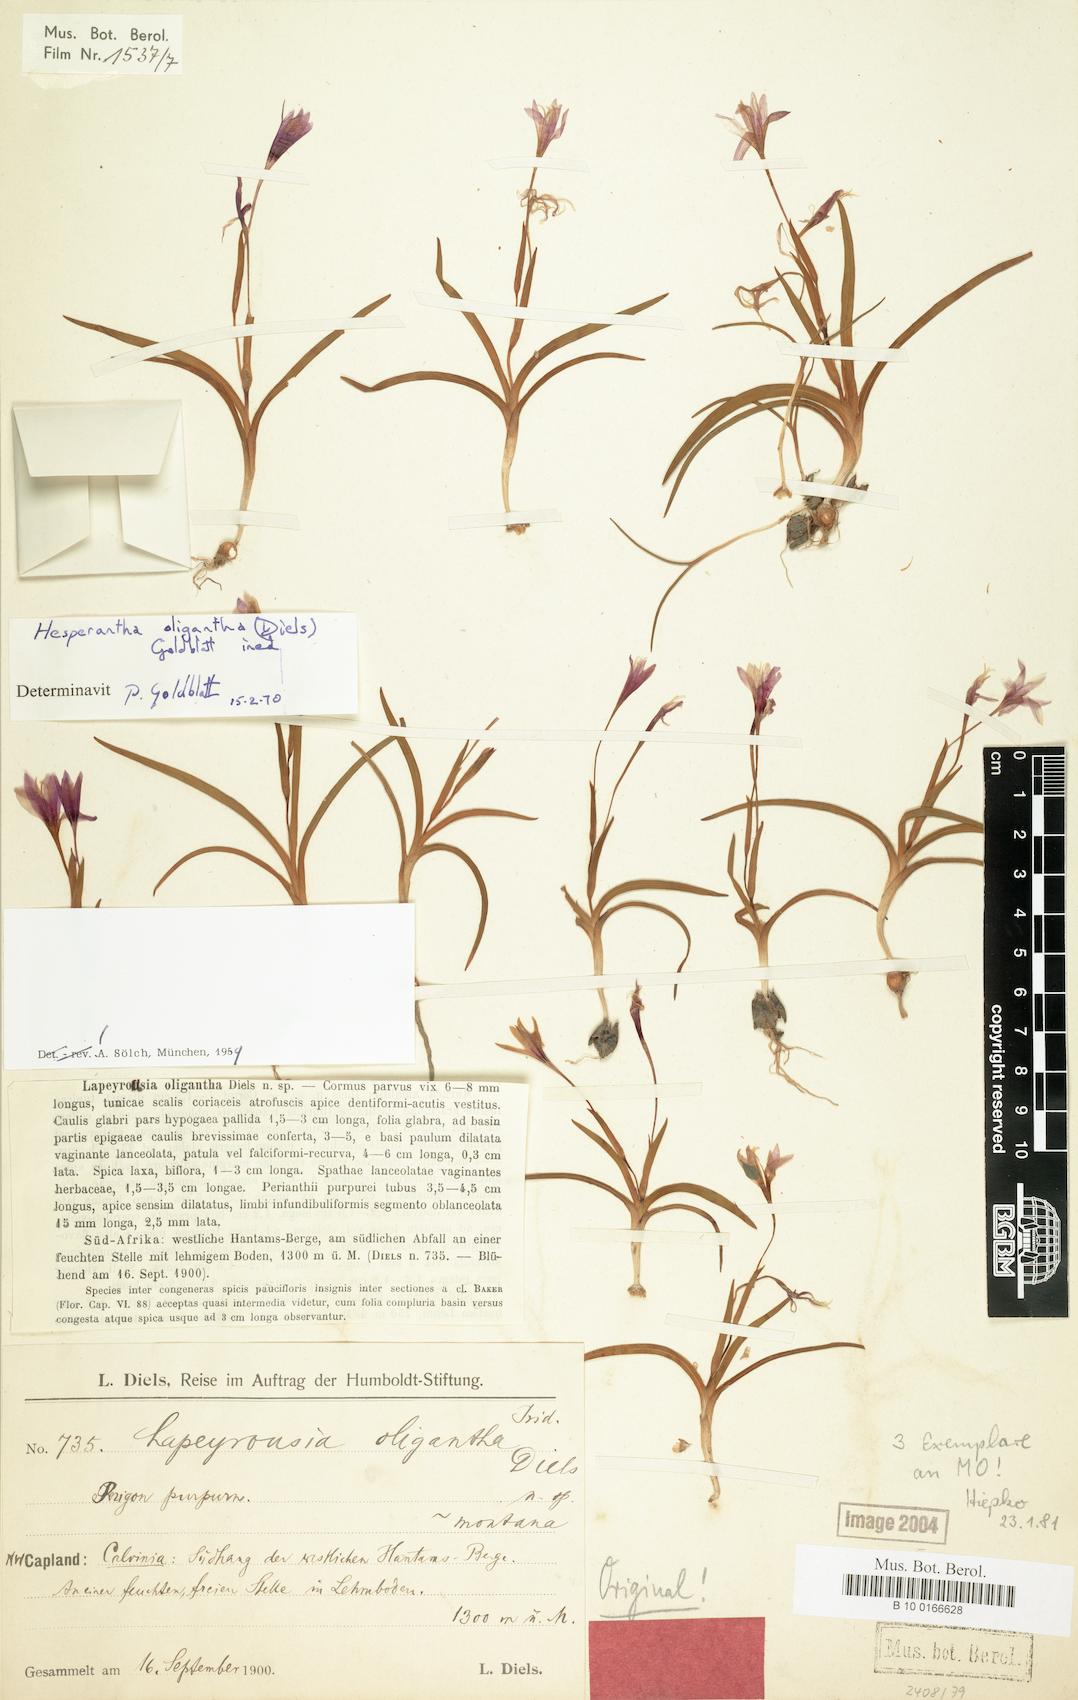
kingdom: Plantae
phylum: Tracheophyta
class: Liliopsida
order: Asparagales
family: Iridaceae
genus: Hesperantha
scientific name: Hesperantha oligantha
